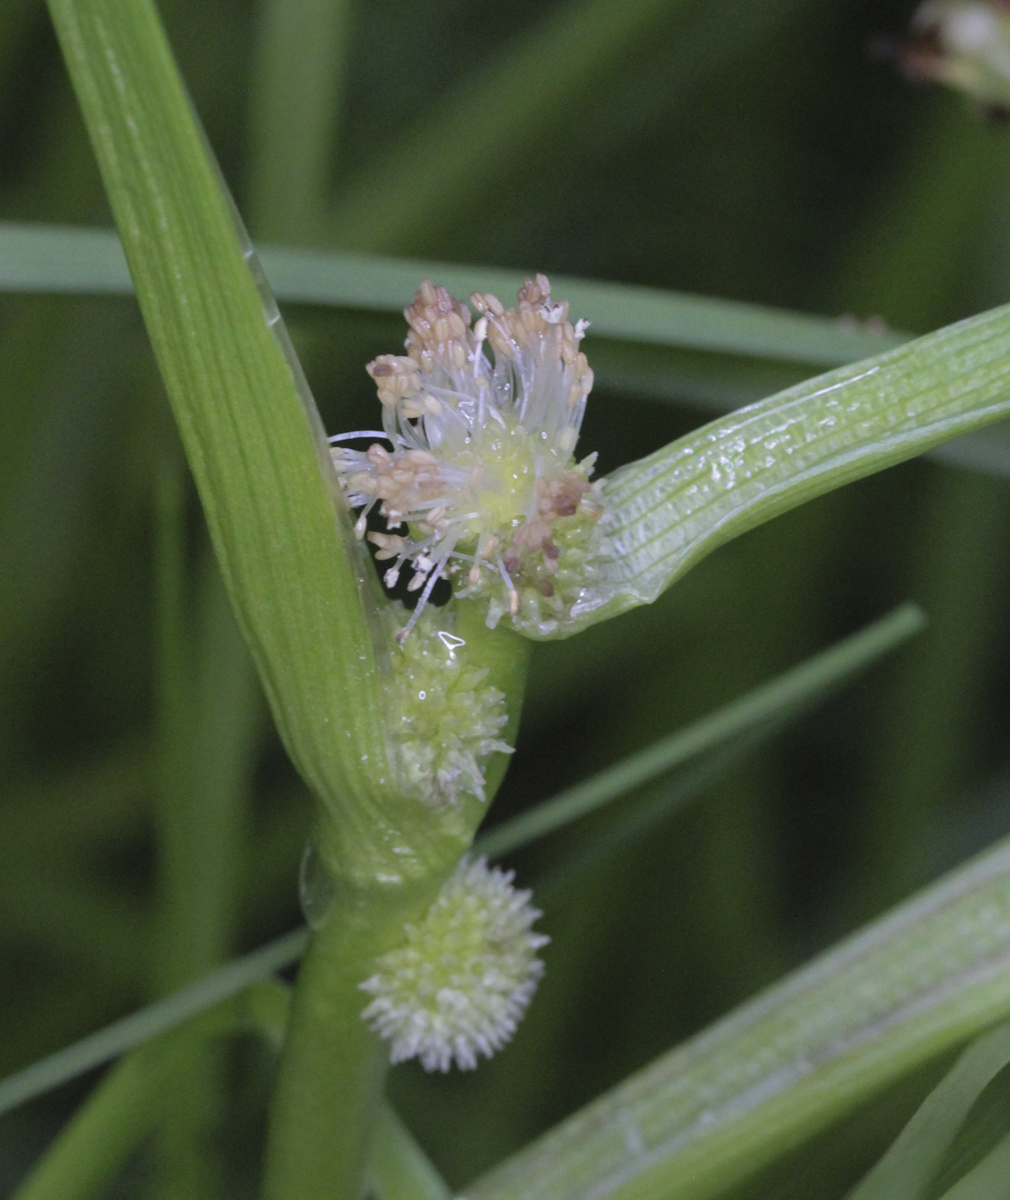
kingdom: Plantae
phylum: Tracheophyta
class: Liliopsida
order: Poales
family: Typhaceae
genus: Sparganium
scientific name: Sparganium glomeratum
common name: Clustered burreed
